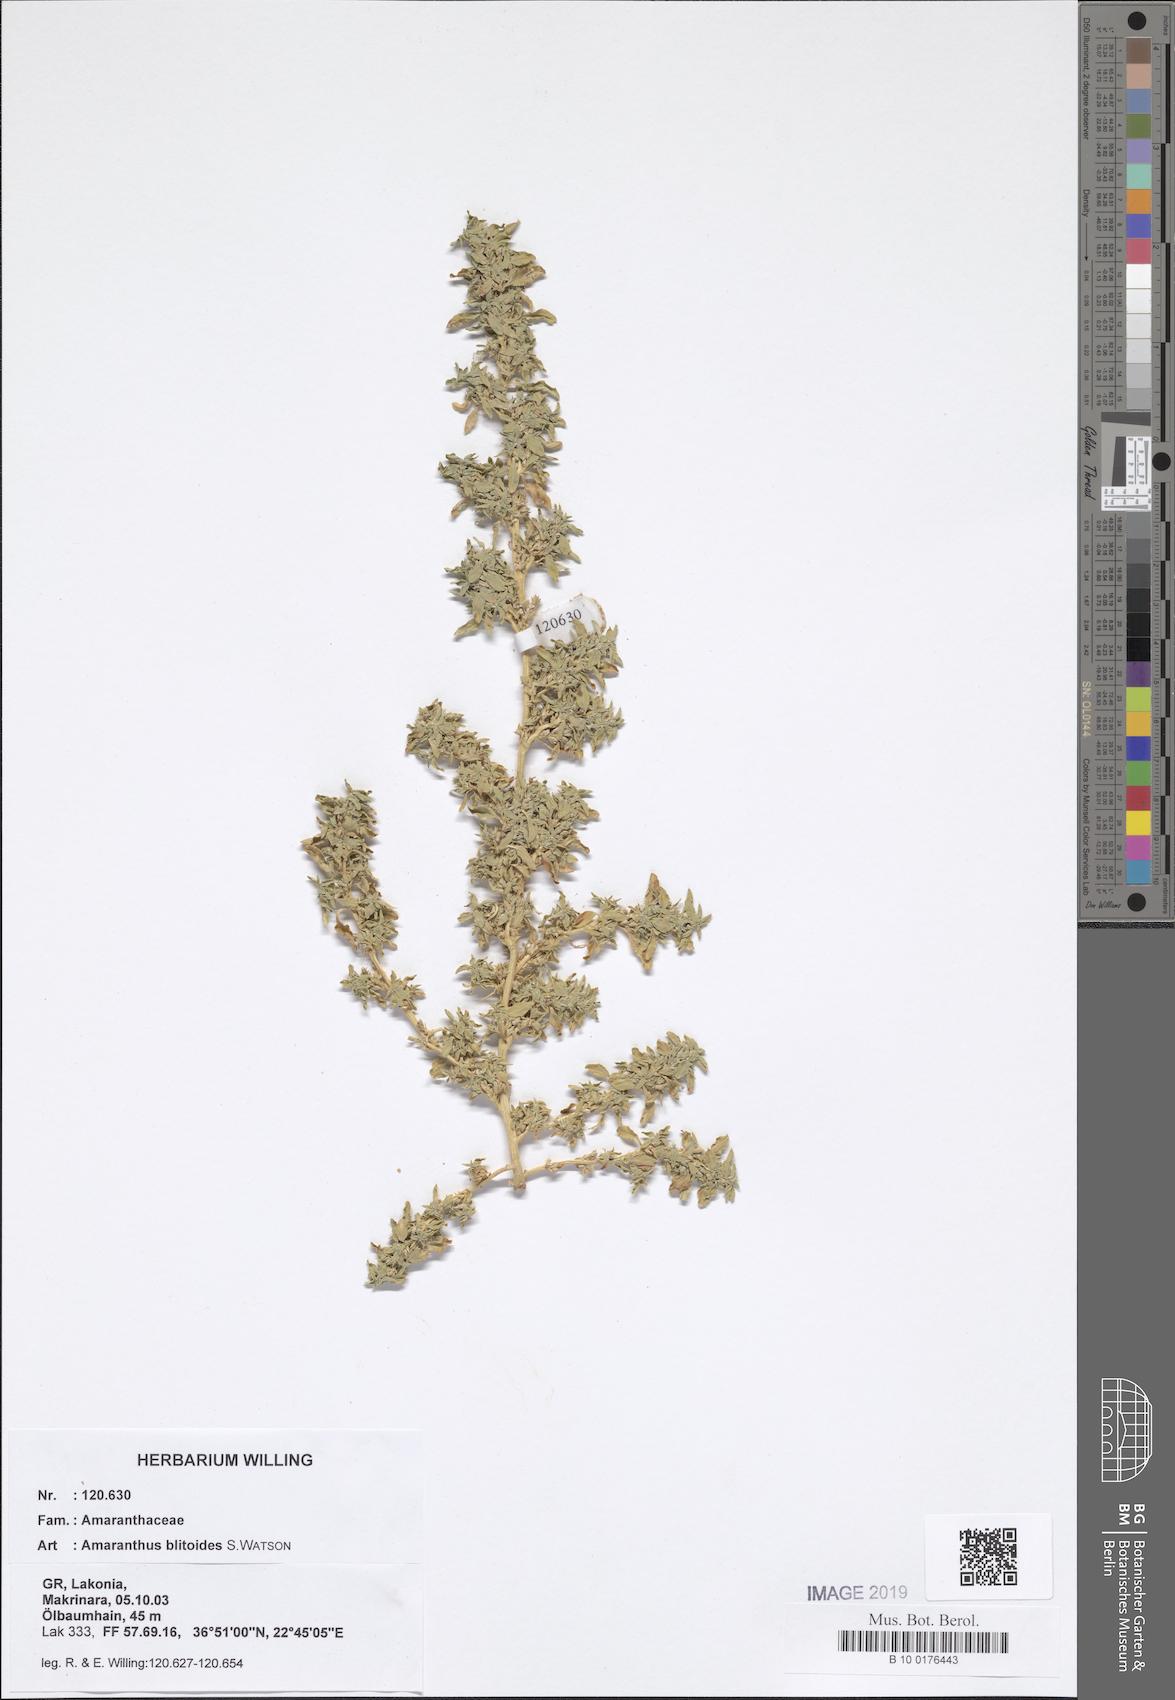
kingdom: Plantae
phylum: Tracheophyta
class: Magnoliopsida
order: Caryophyllales
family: Amaranthaceae
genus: Amaranthus
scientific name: Amaranthus blitoides
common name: Prostrate pigweed
